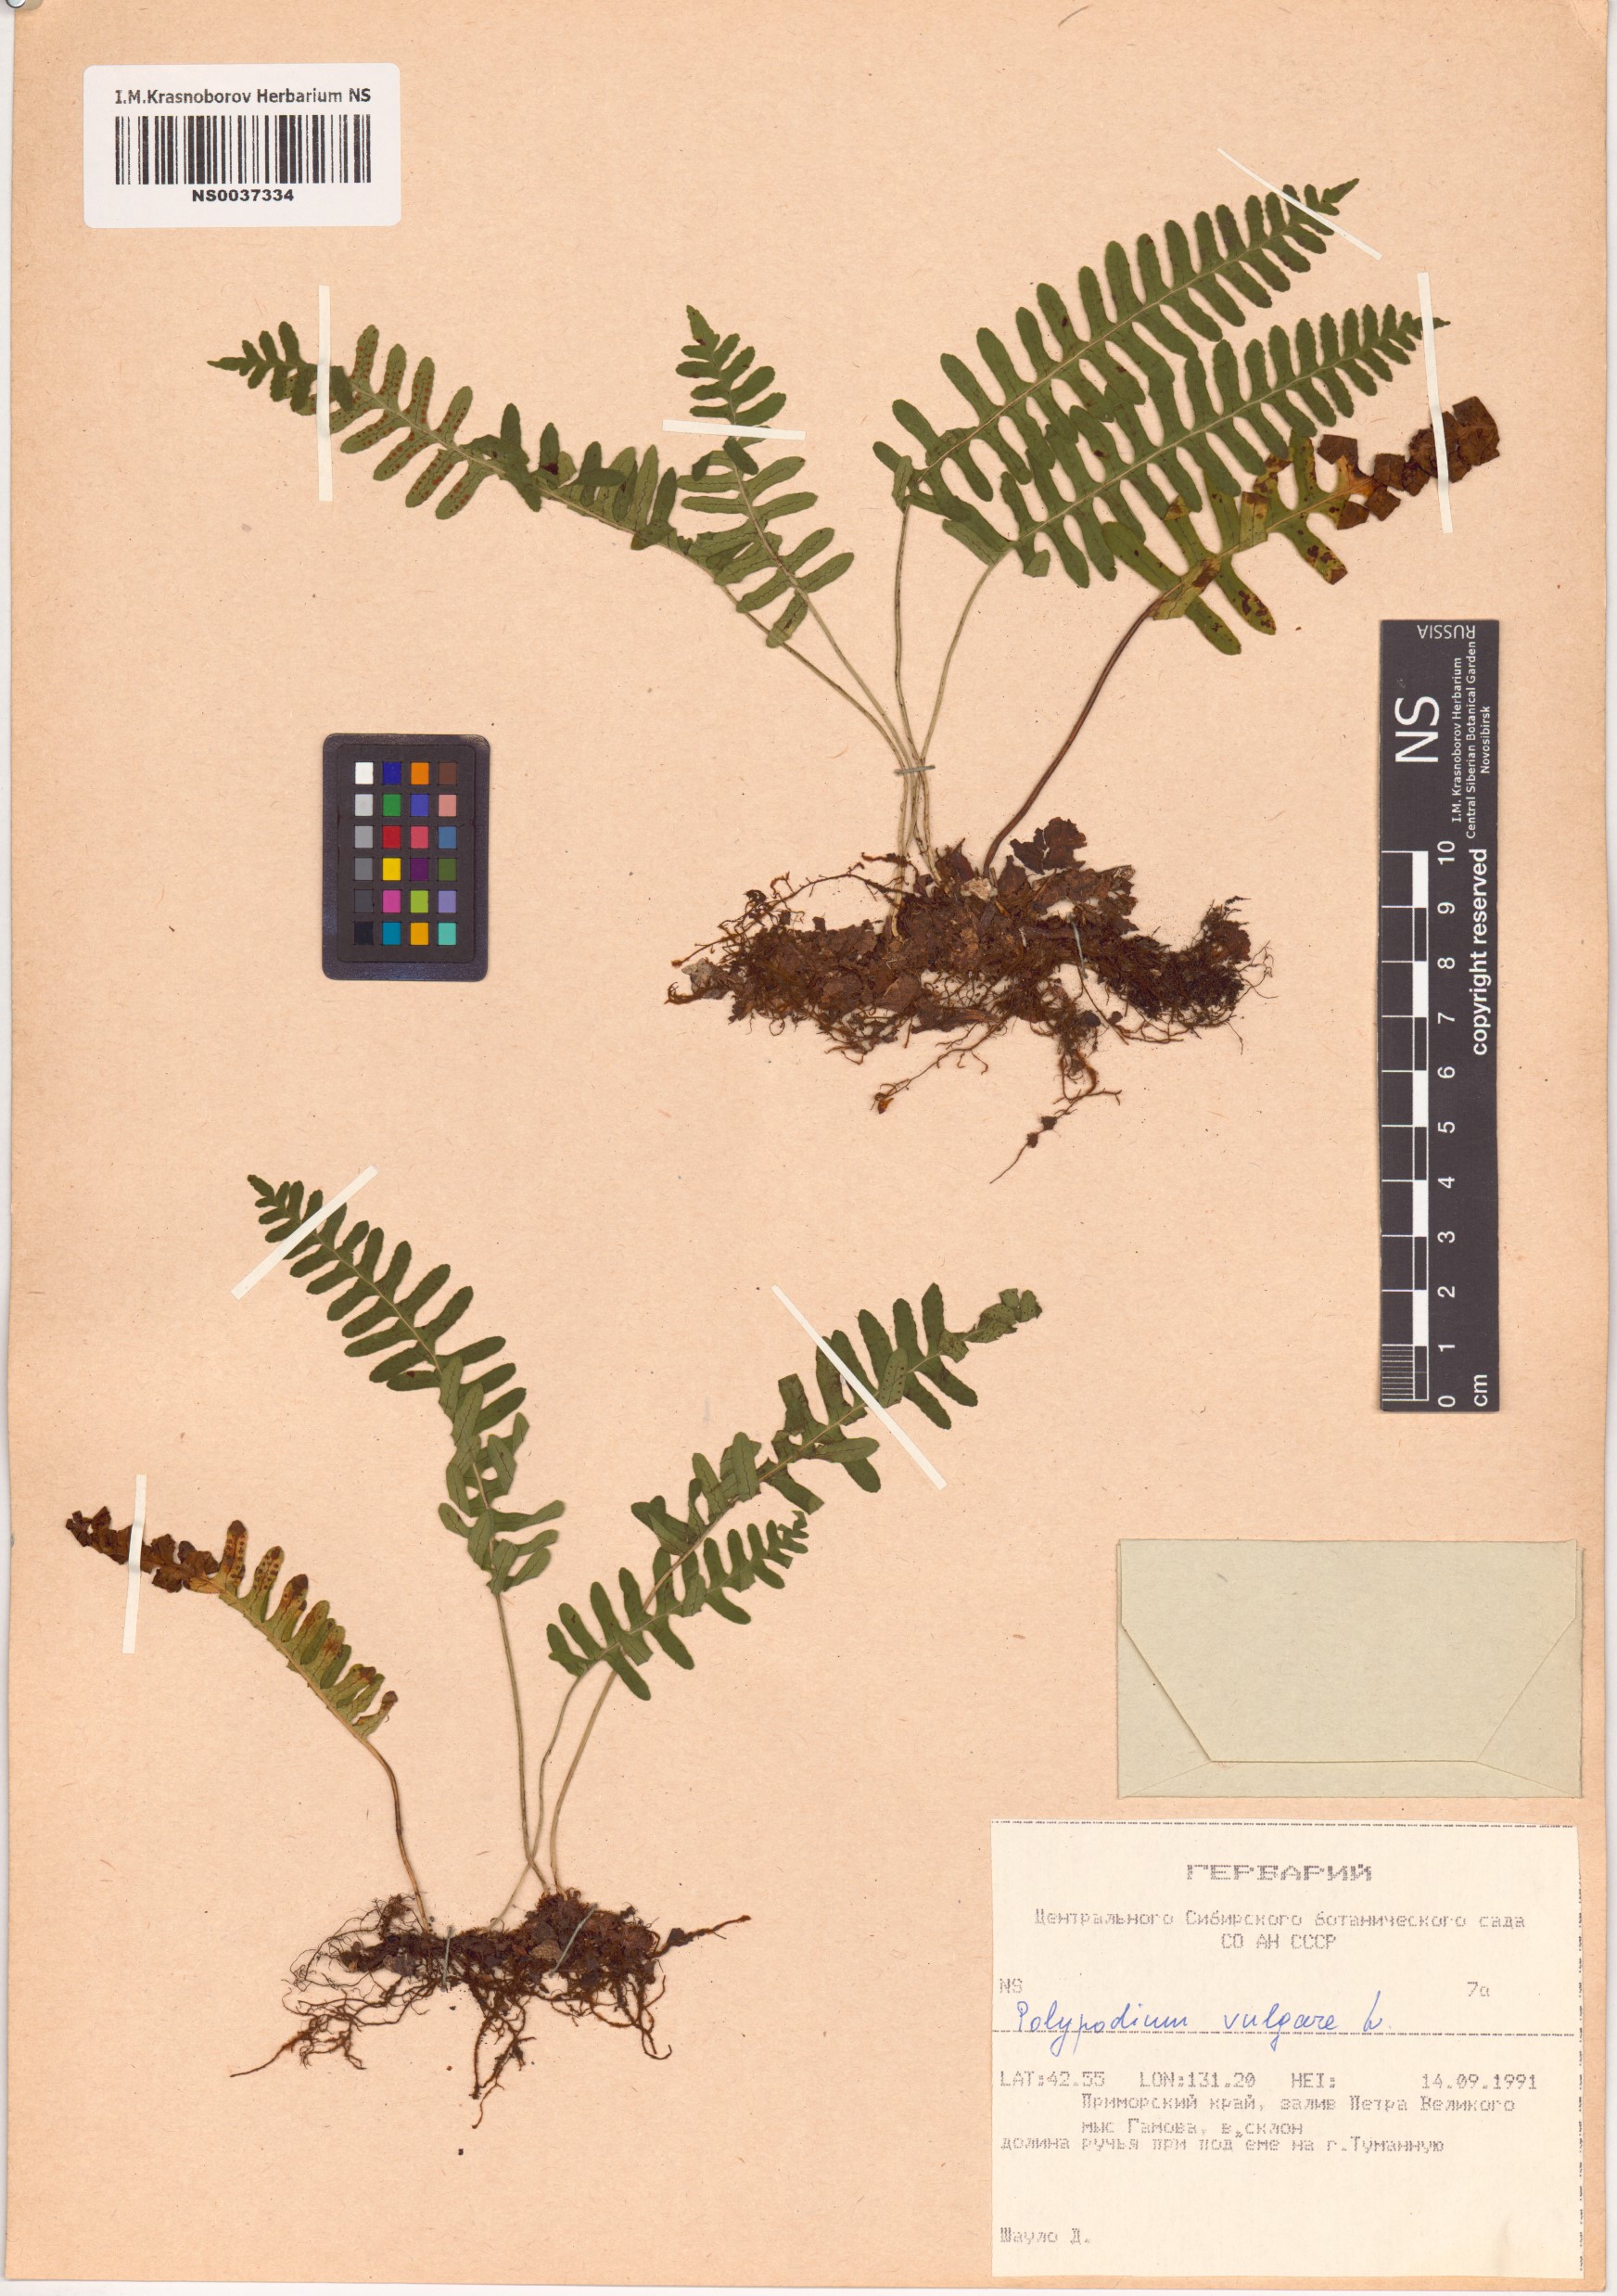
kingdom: Plantae
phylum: Tracheophyta
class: Polypodiopsida
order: Polypodiales
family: Polypodiaceae
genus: Polypodium
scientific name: Polypodium vulgare
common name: Common polypody
